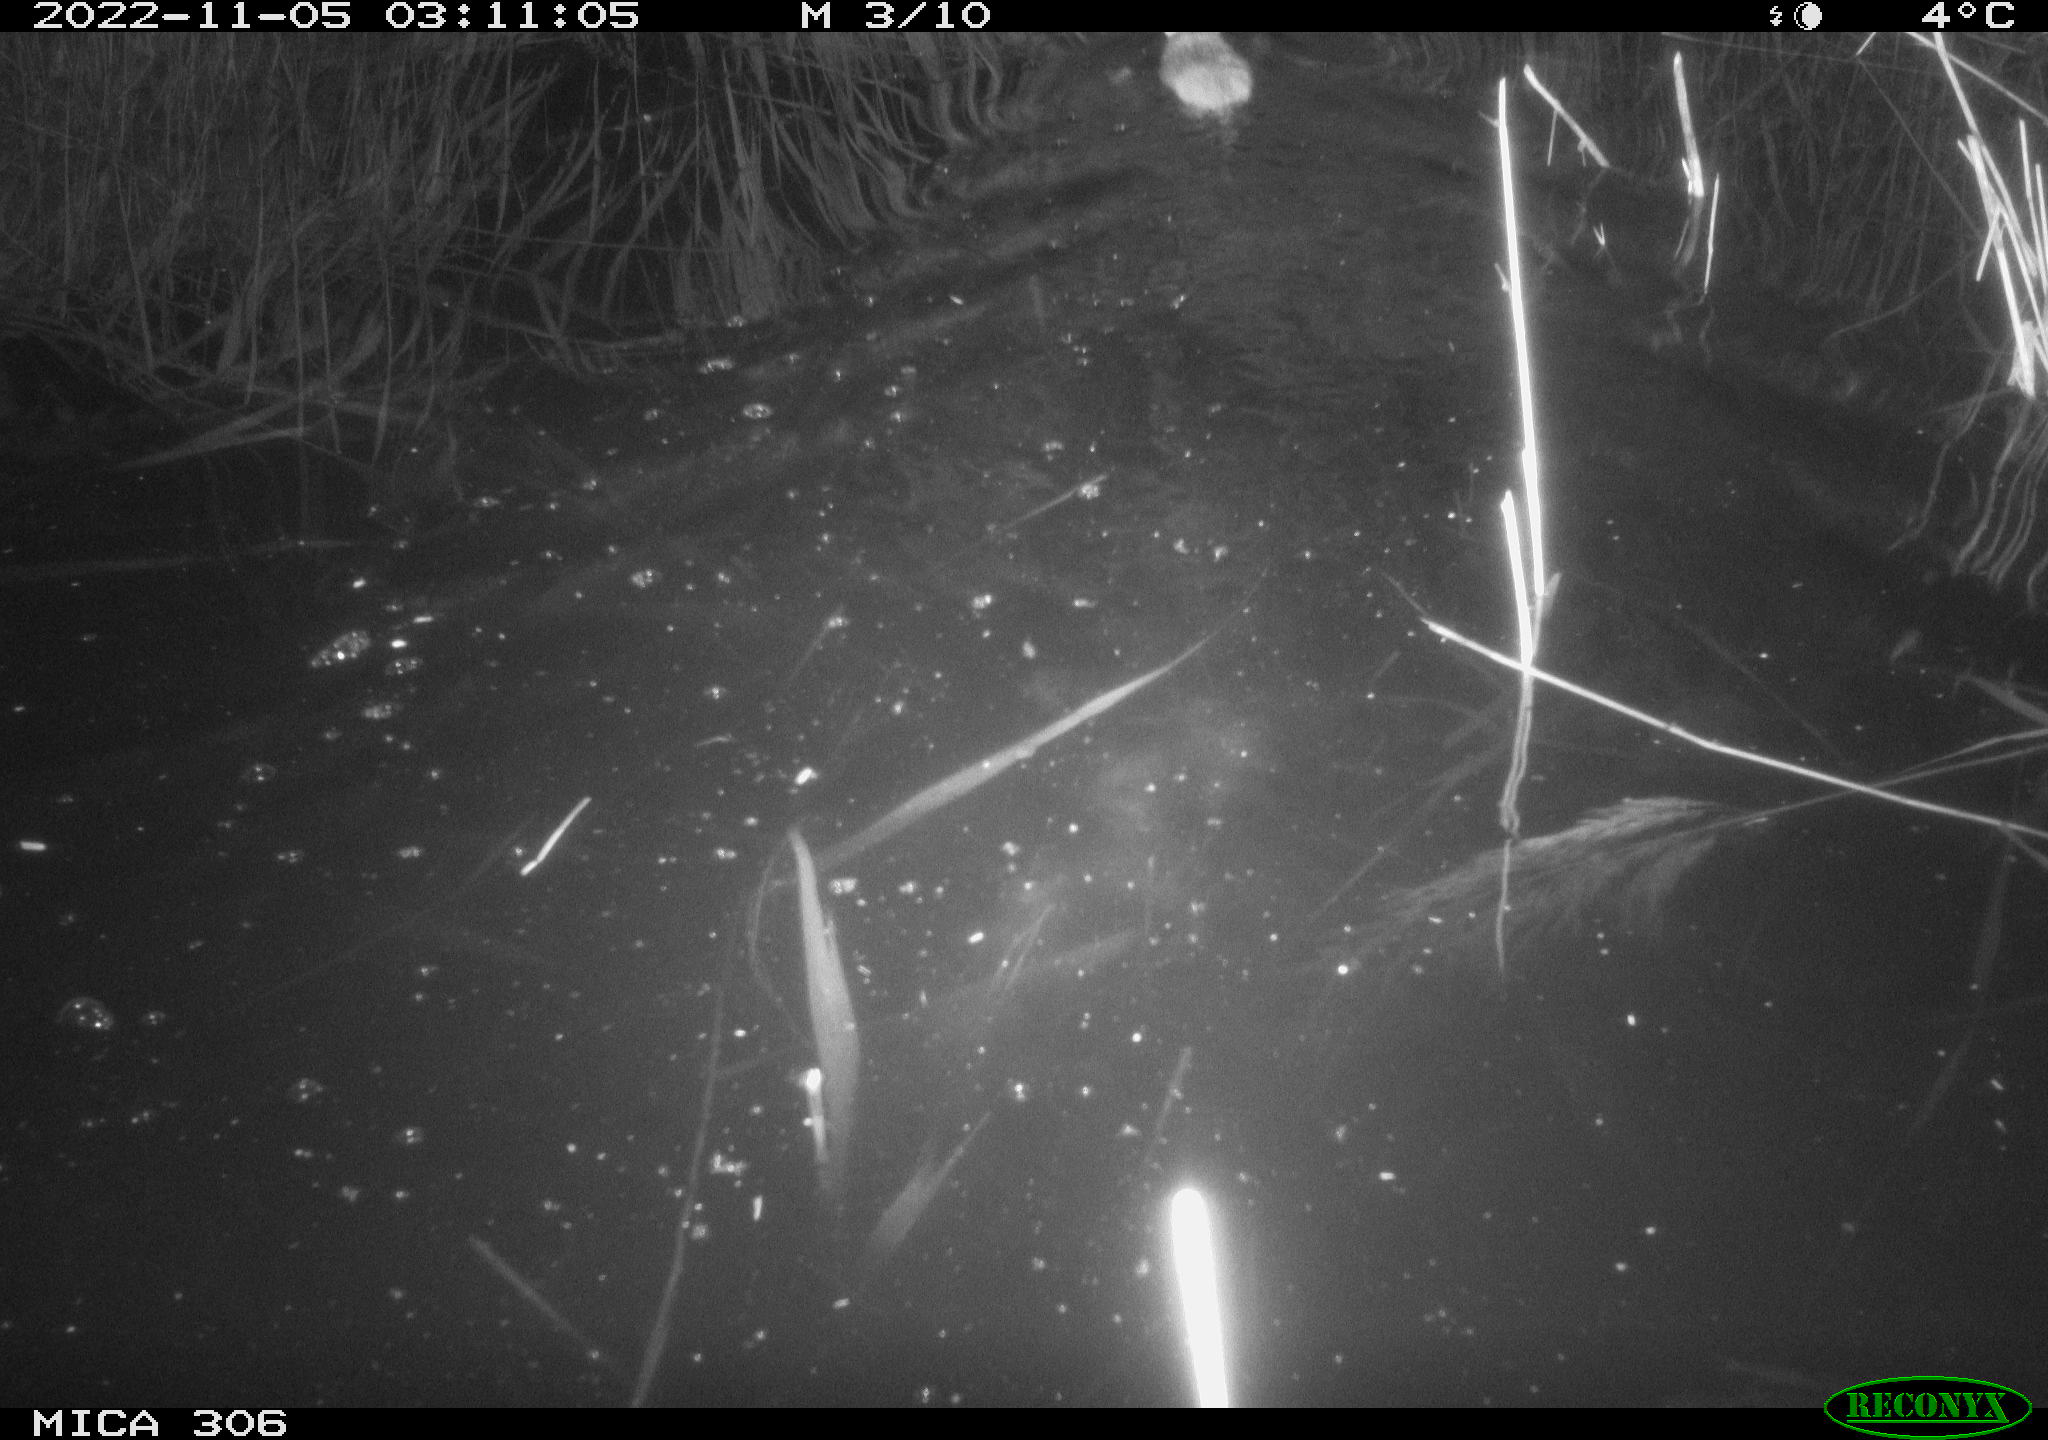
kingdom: Animalia
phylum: Chordata
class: Mammalia
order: Rodentia
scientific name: Rodentia
